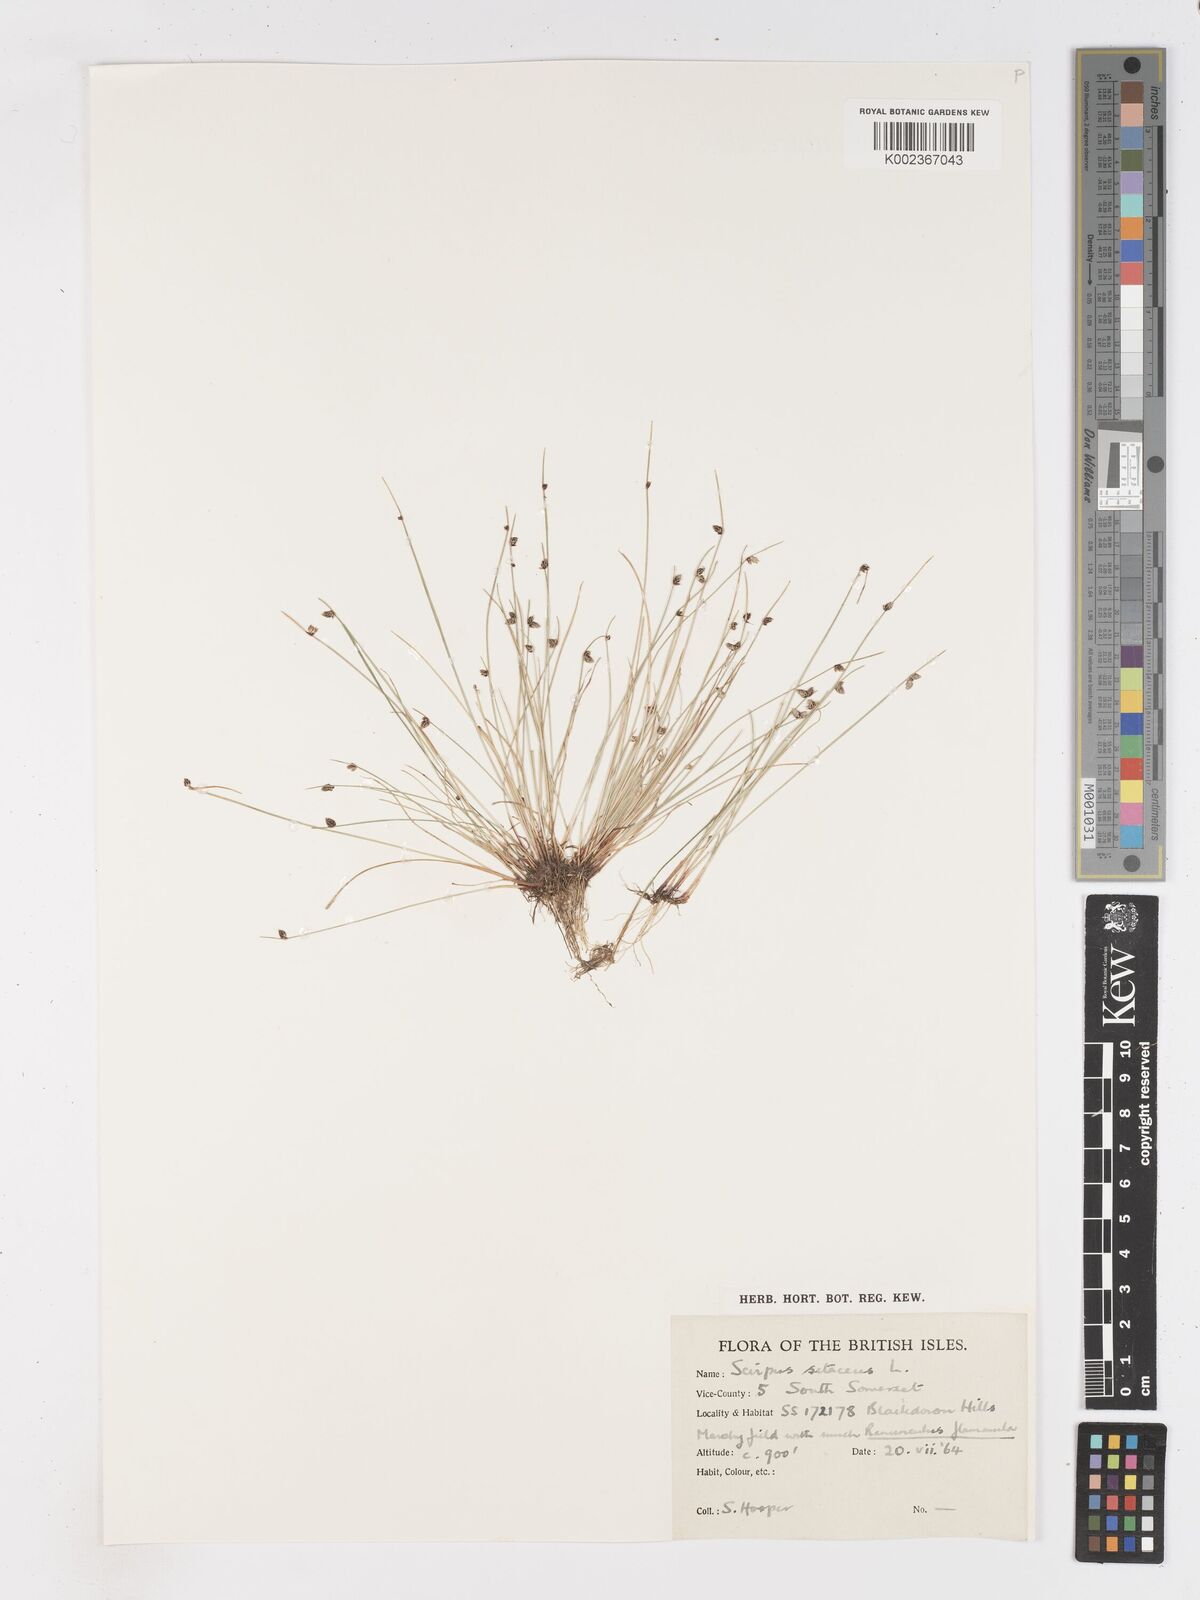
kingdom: Plantae
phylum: Tracheophyta
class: Liliopsida
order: Poales
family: Cyperaceae
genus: Isolepis
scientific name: Isolepis setacea
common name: Bristle club-rush
